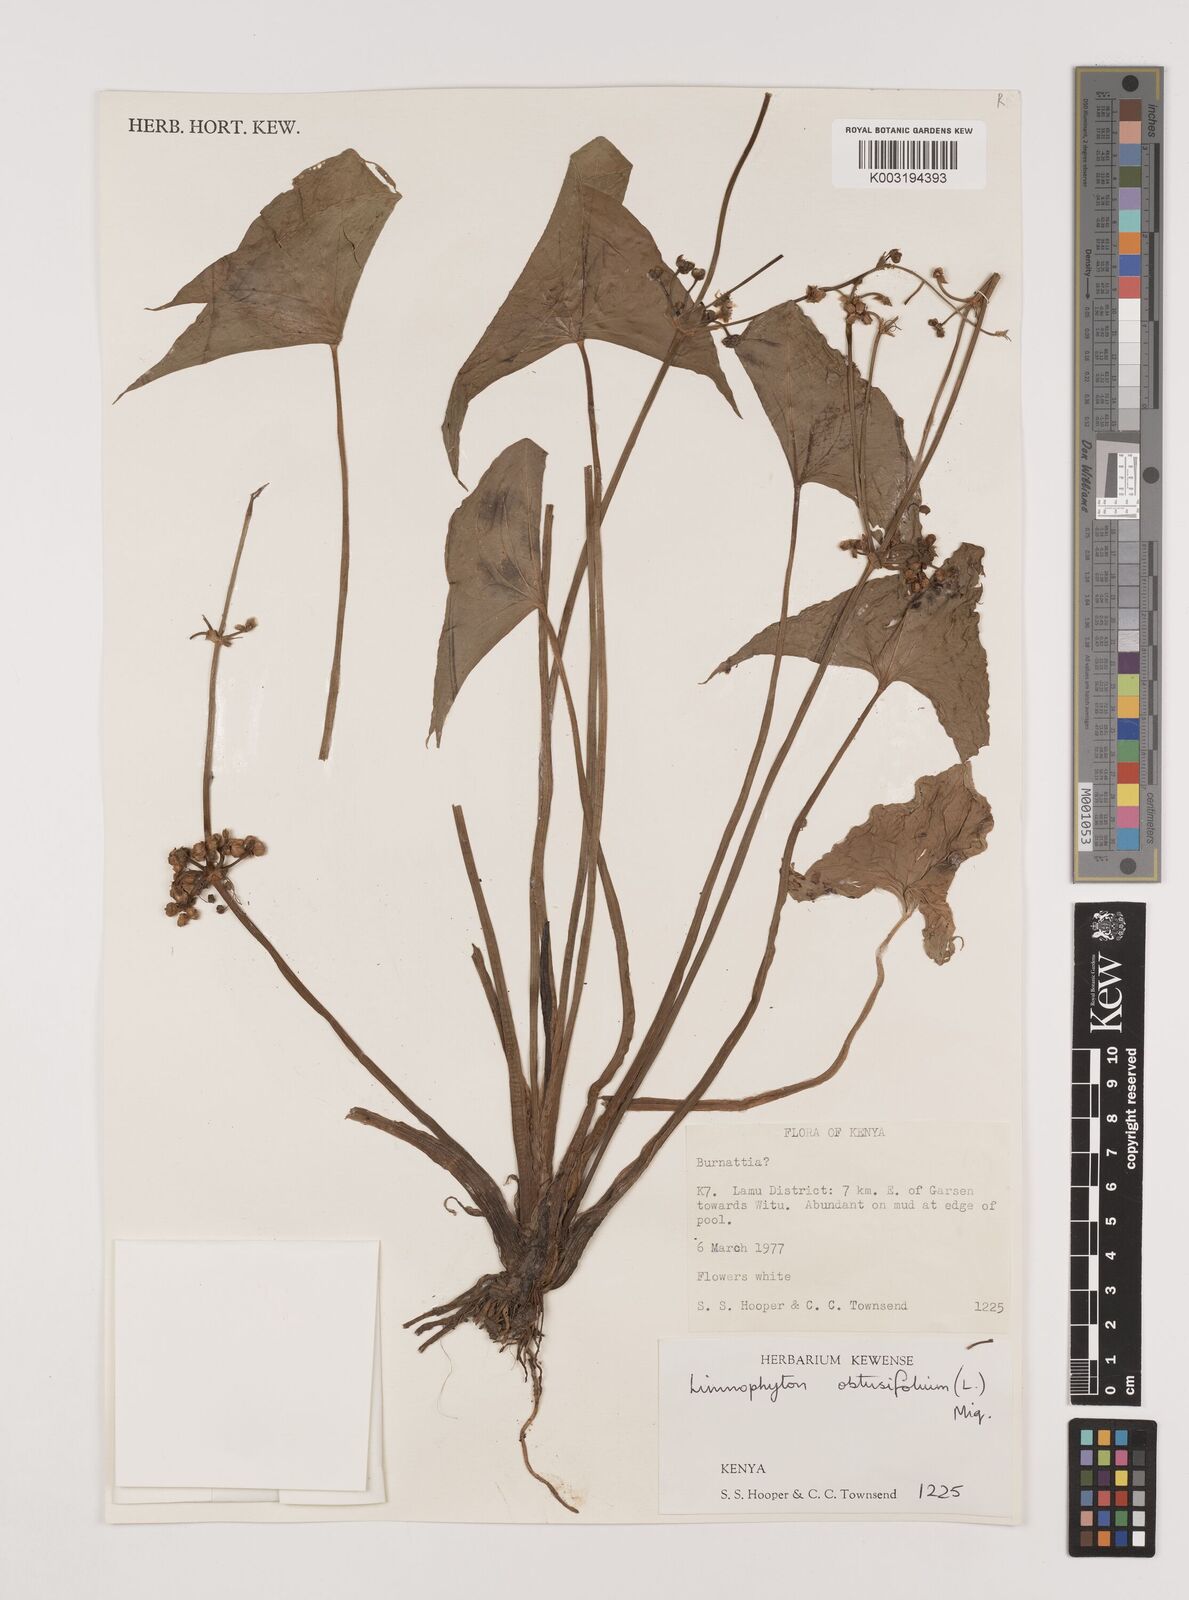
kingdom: Plantae
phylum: Tracheophyta
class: Liliopsida
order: Alismatales
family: Alismataceae
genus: Limnophyton
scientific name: Limnophyton obtusifolium
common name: Arrow head
